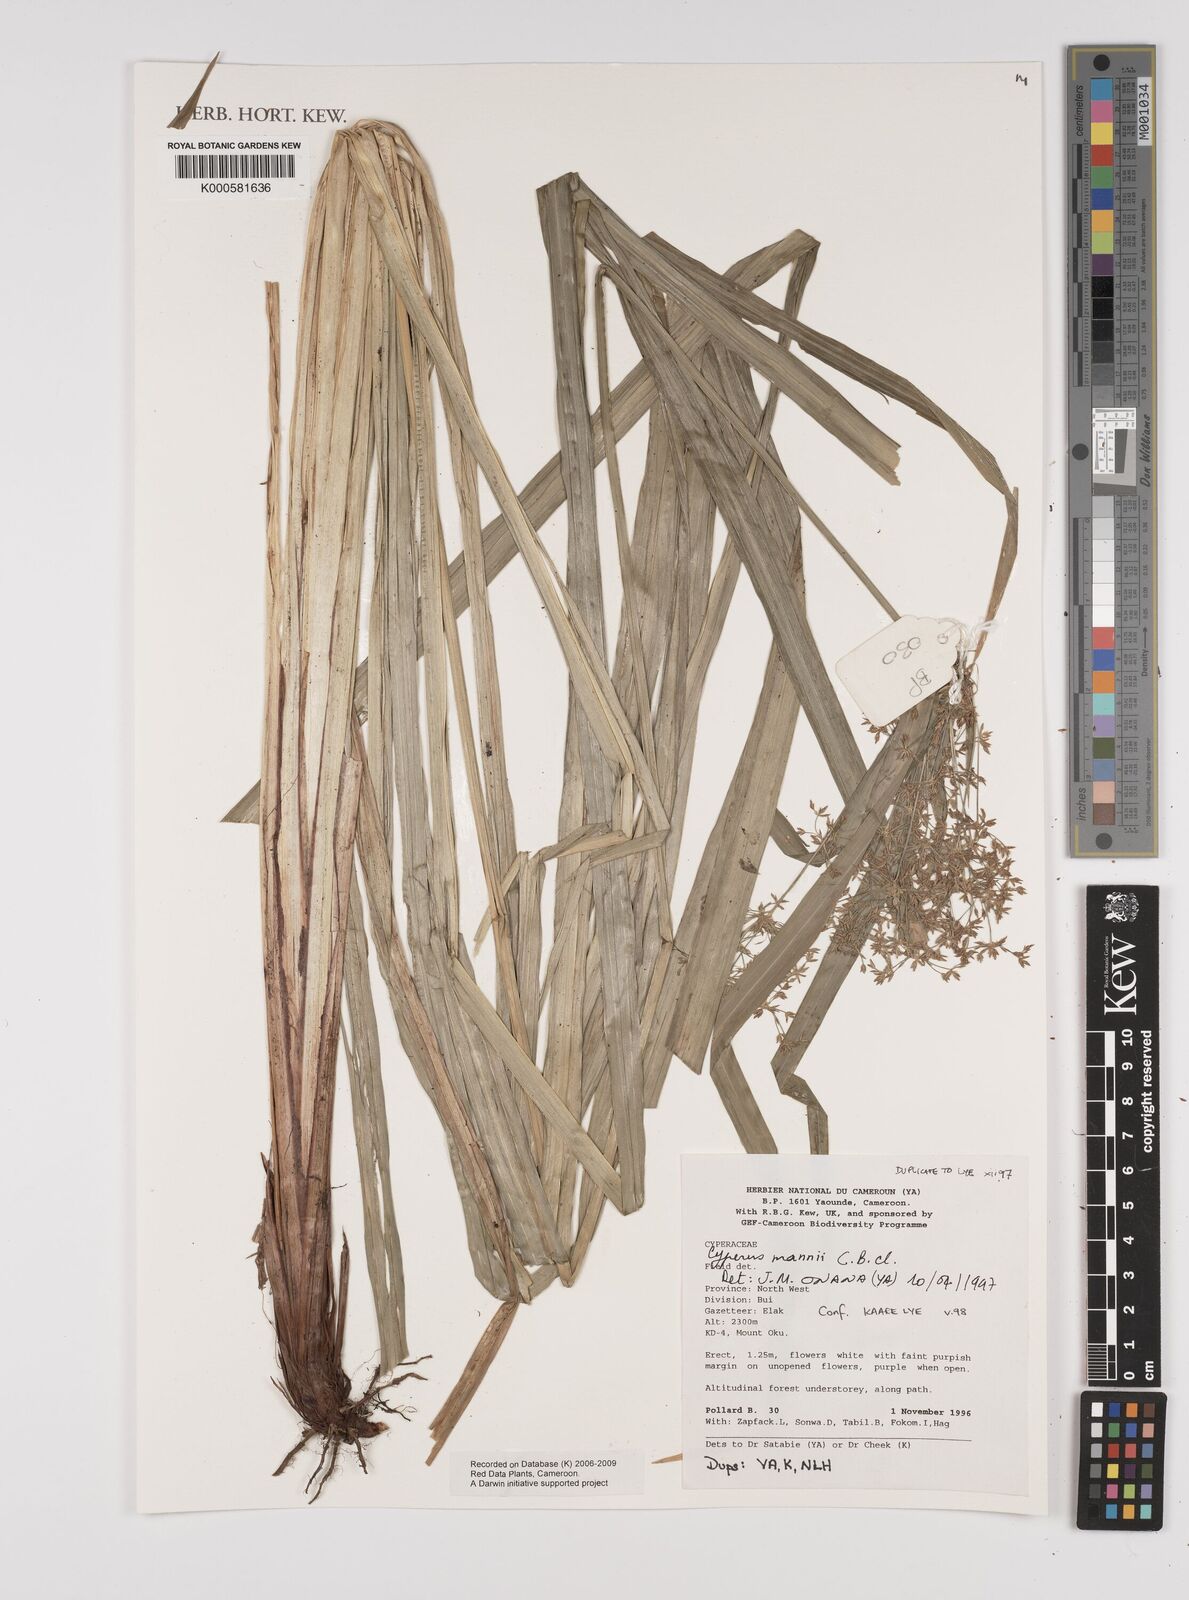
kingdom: Plantae
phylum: Tracheophyta
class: Liliopsida
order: Poales
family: Cyperaceae
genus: Cyperus
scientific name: Cyperus baronii
